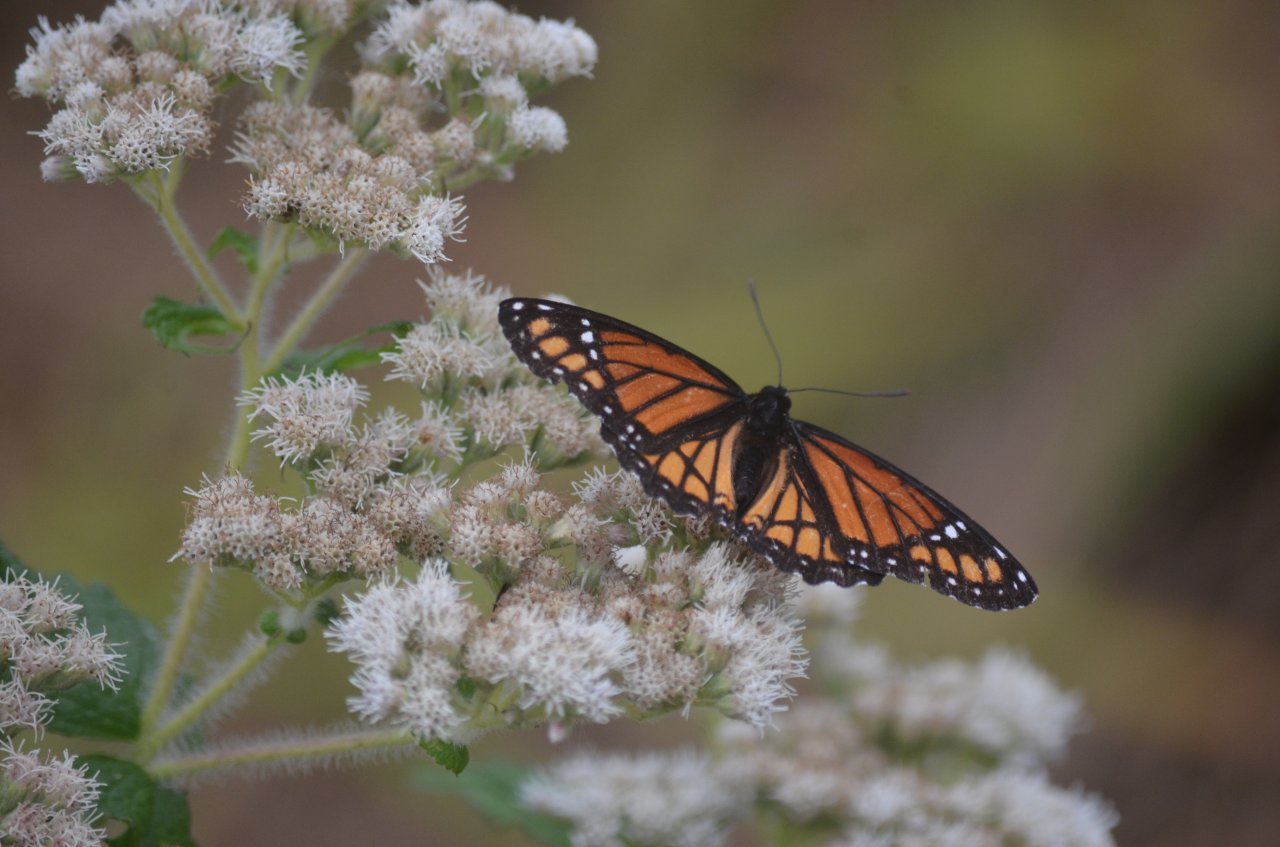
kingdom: Animalia
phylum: Arthropoda
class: Insecta
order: Lepidoptera
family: Nymphalidae
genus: Limenitis
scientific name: Limenitis archippus
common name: Viceroy
